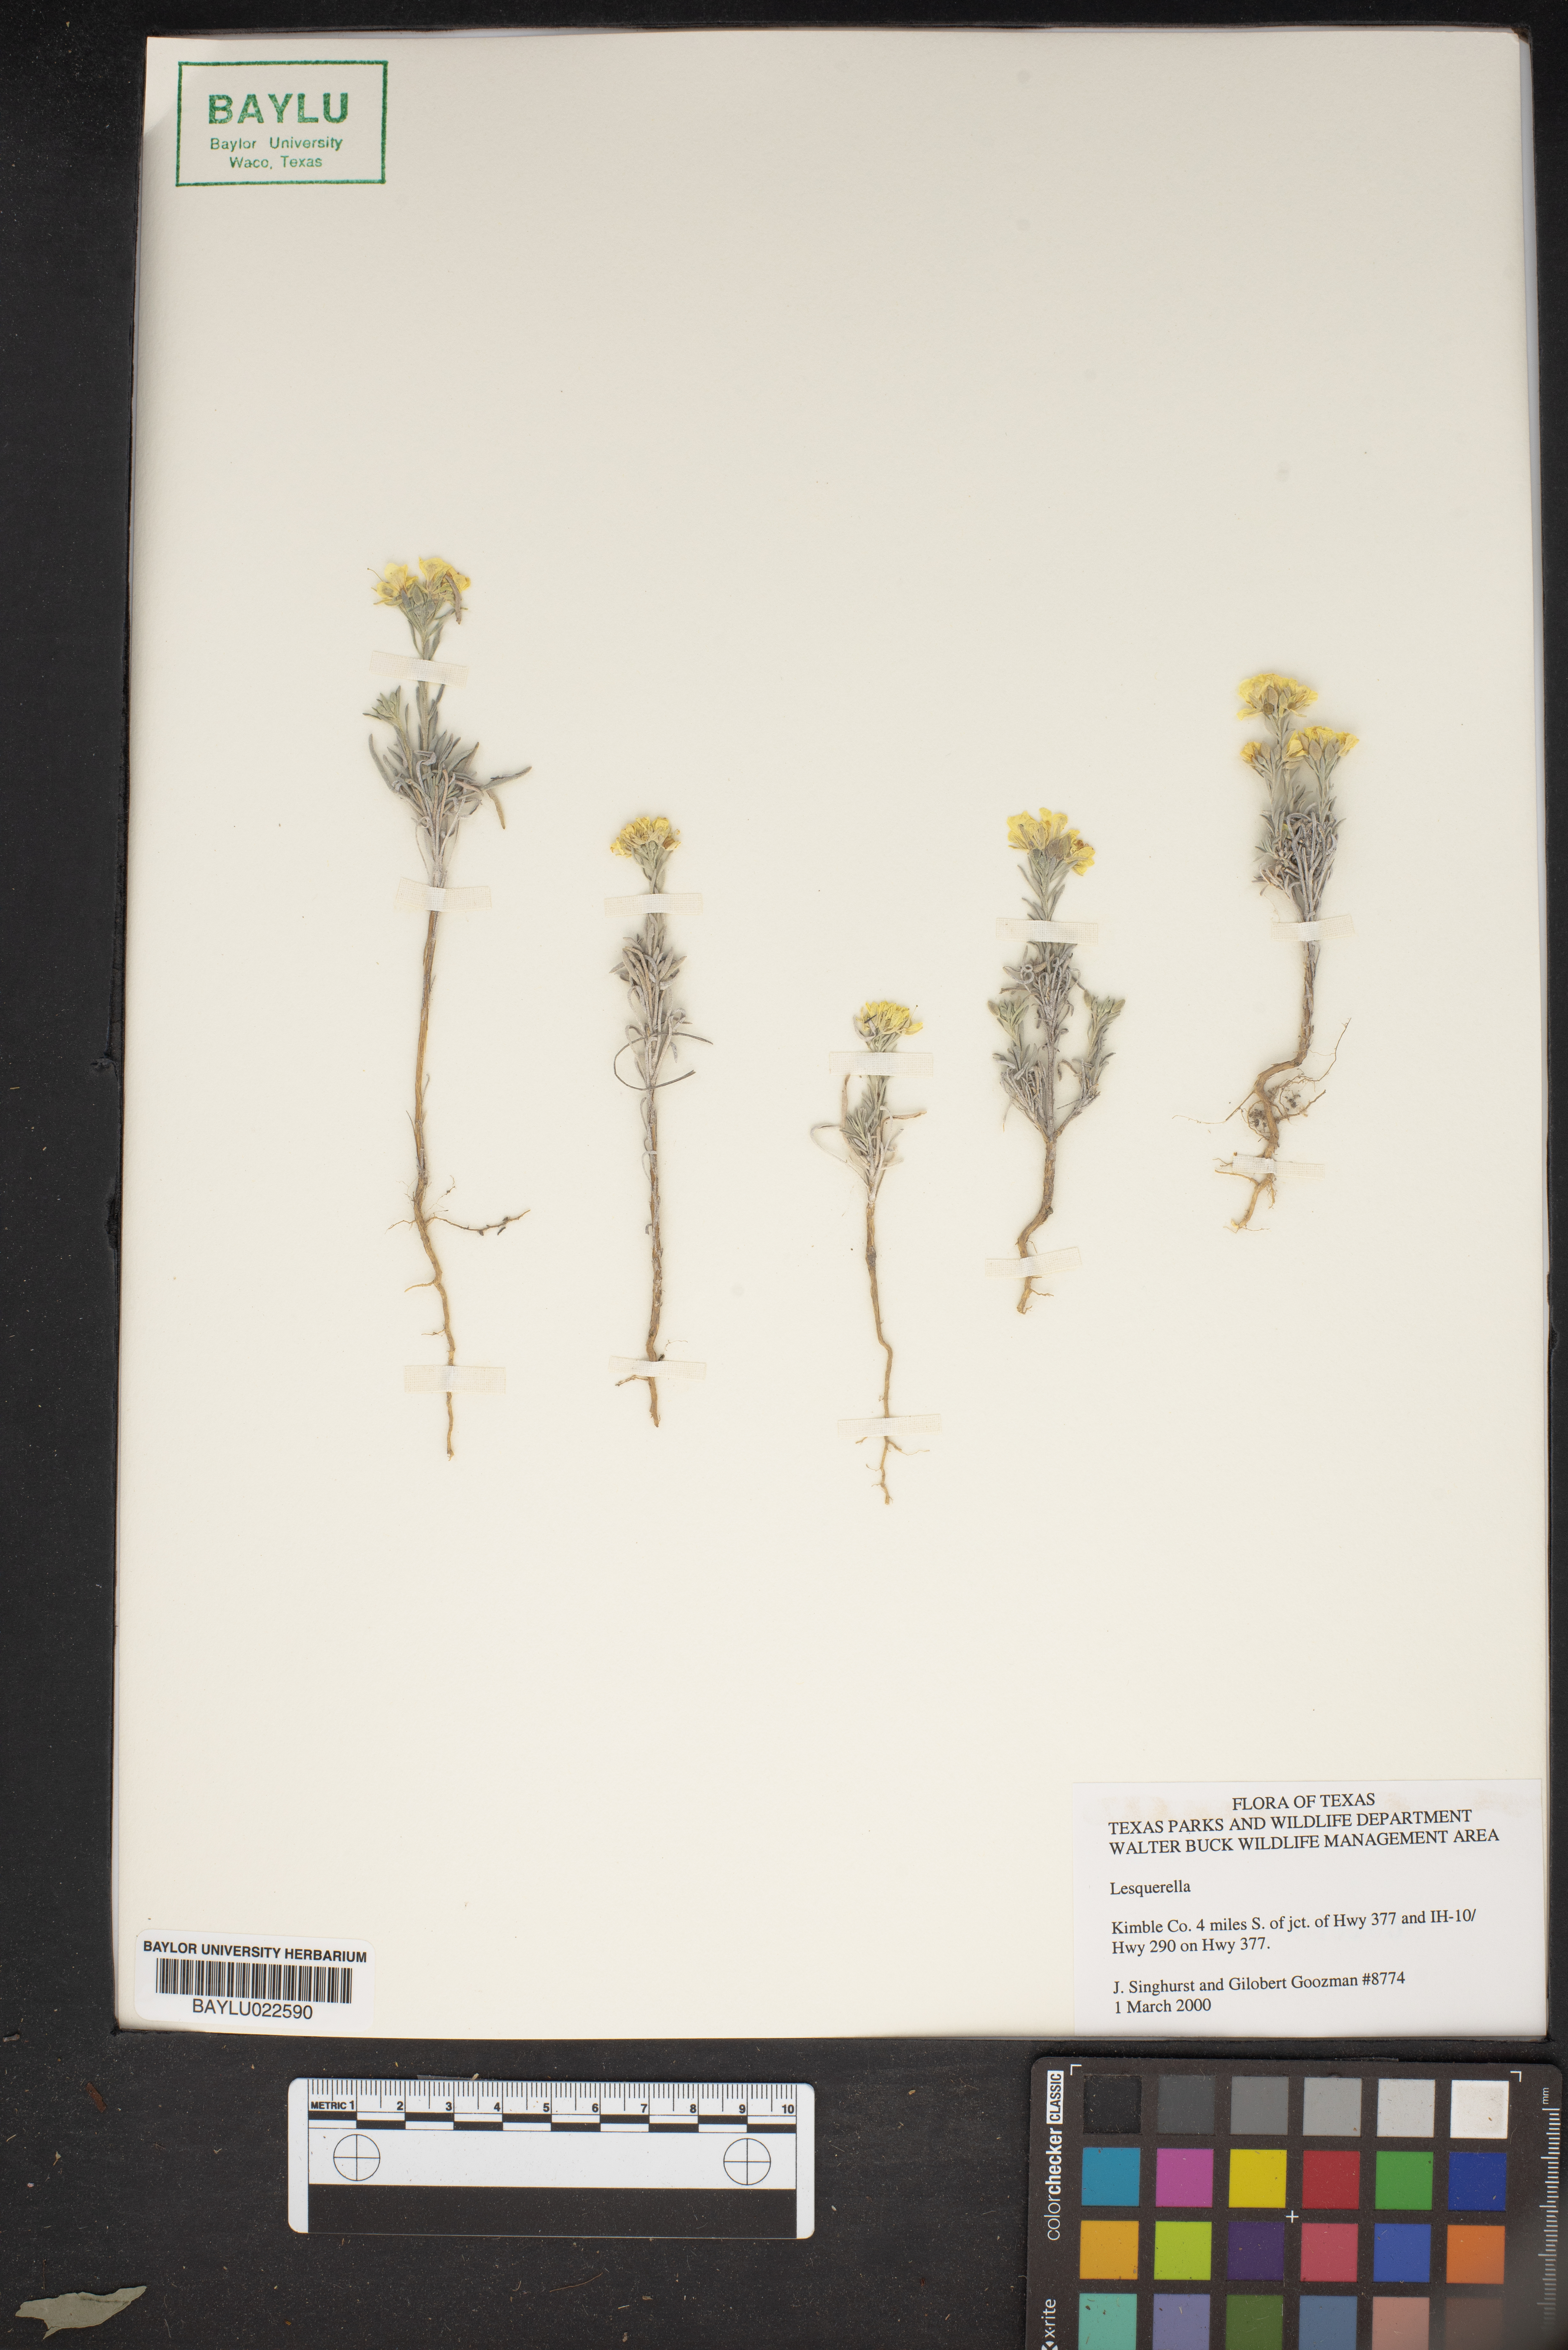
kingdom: Chromista
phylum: Cercozoa
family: Psammonobiotidae
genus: Lesquerella
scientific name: Lesquerella
